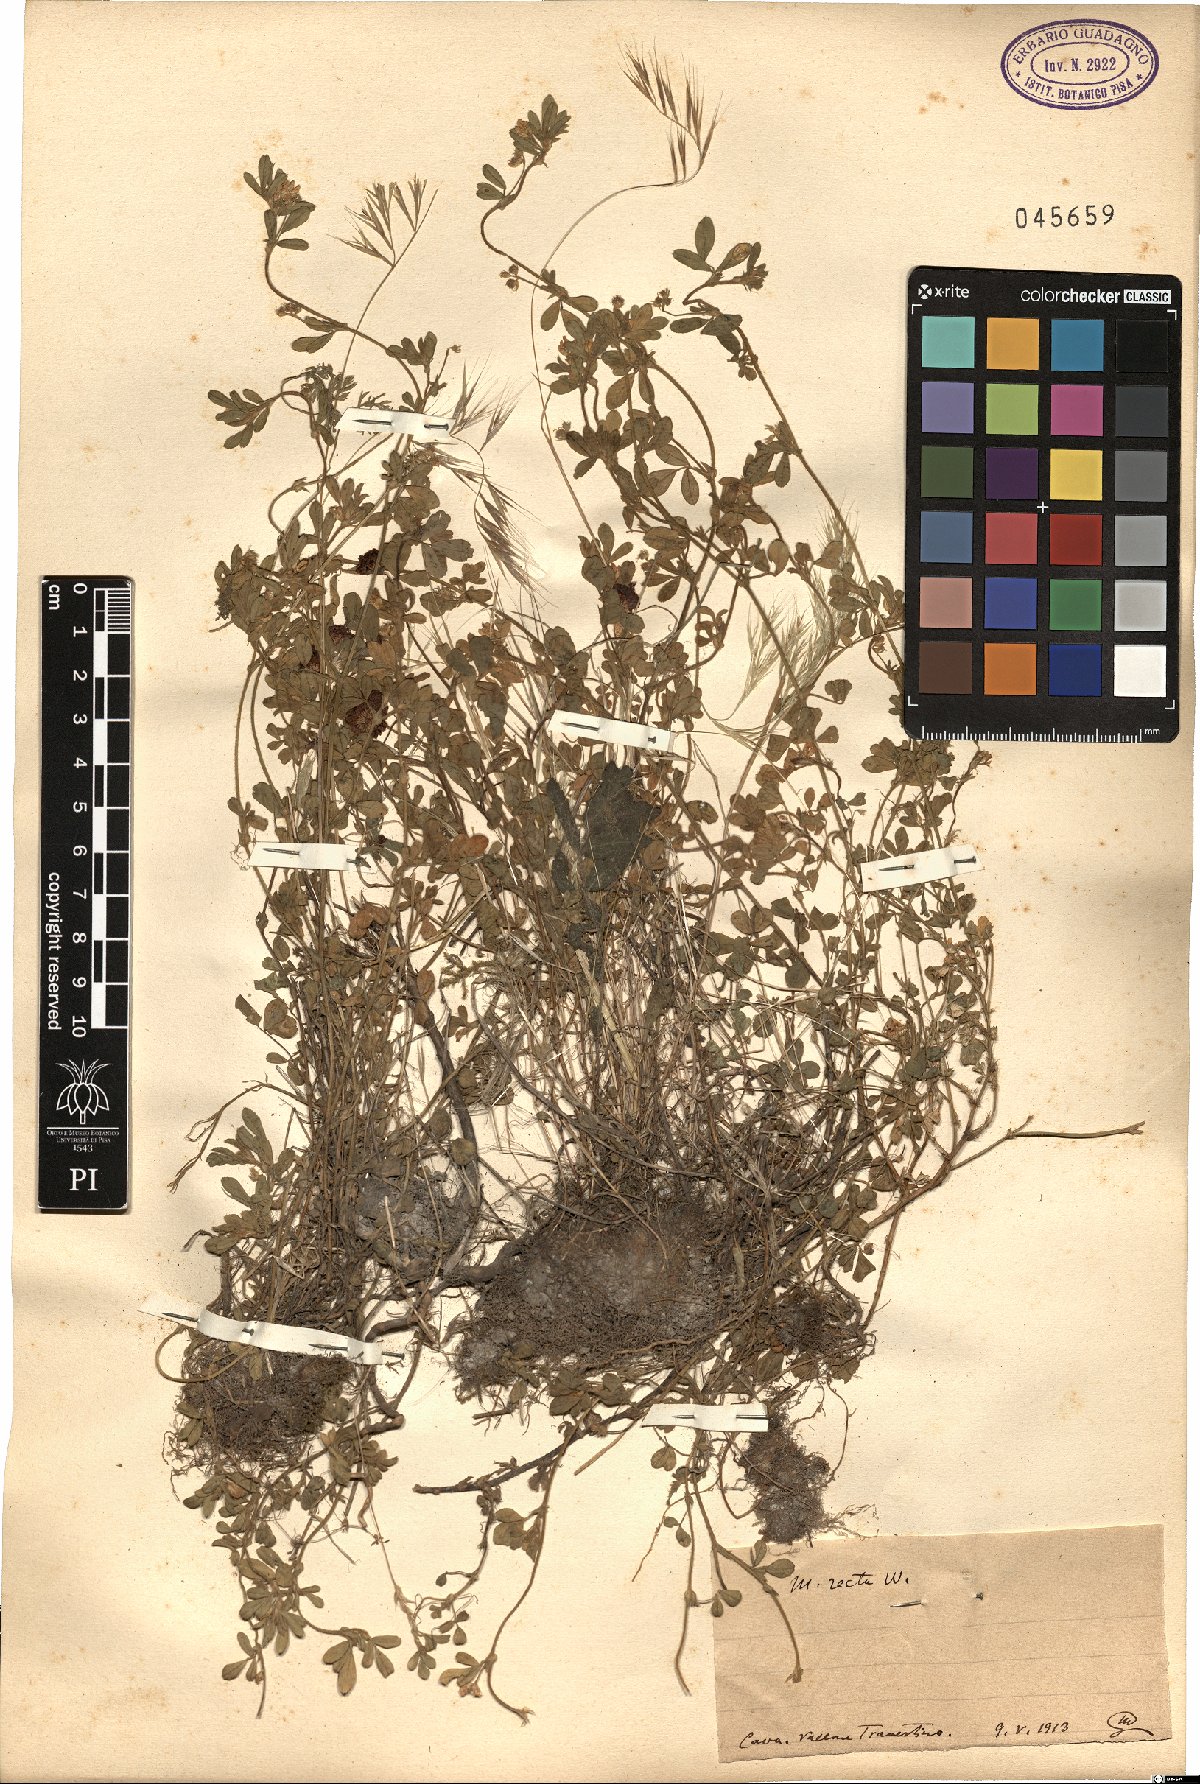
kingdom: Plantae
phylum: Tracheophyta
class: Magnoliopsida
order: Fabales
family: Fabaceae
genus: Medicago
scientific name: Medicago minima
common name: Little bur-clover
